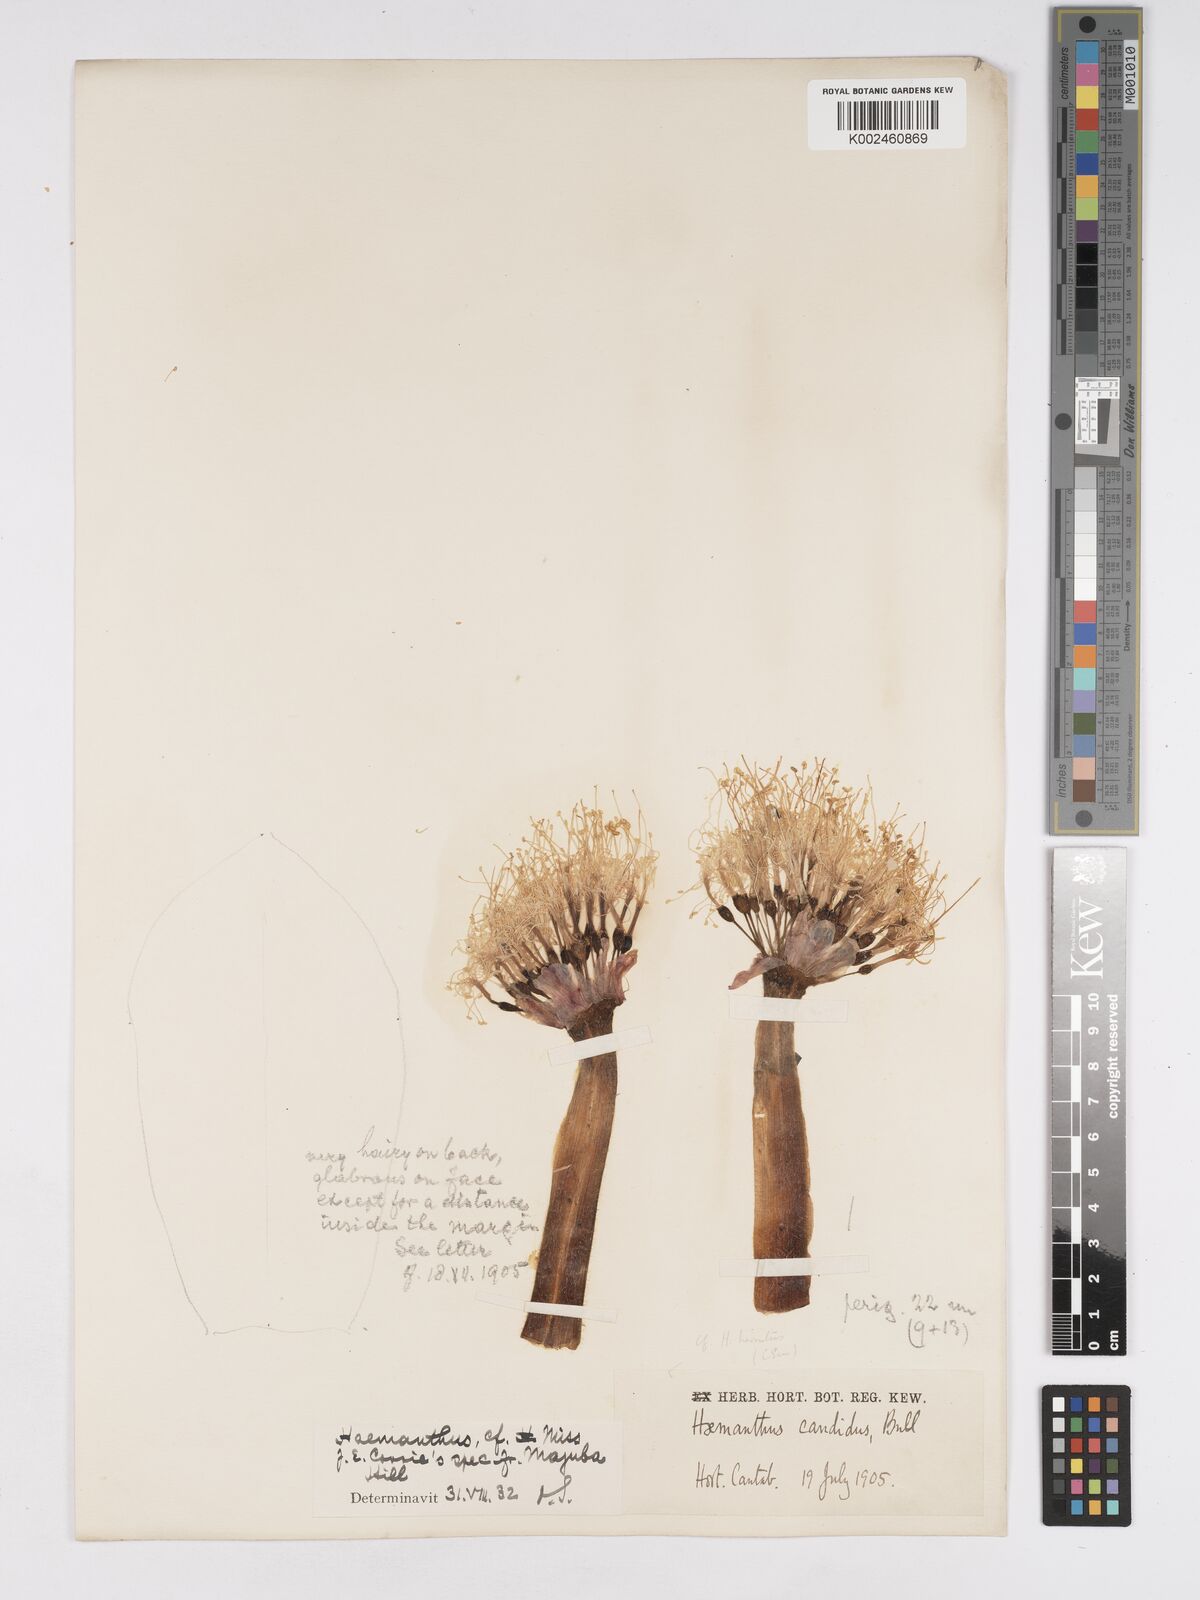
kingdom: Plantae
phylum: Tracheophyta
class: Liliopsida
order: Asparagales
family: Amaryllidaceae
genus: Haemanthus
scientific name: Haemanthus humilis
